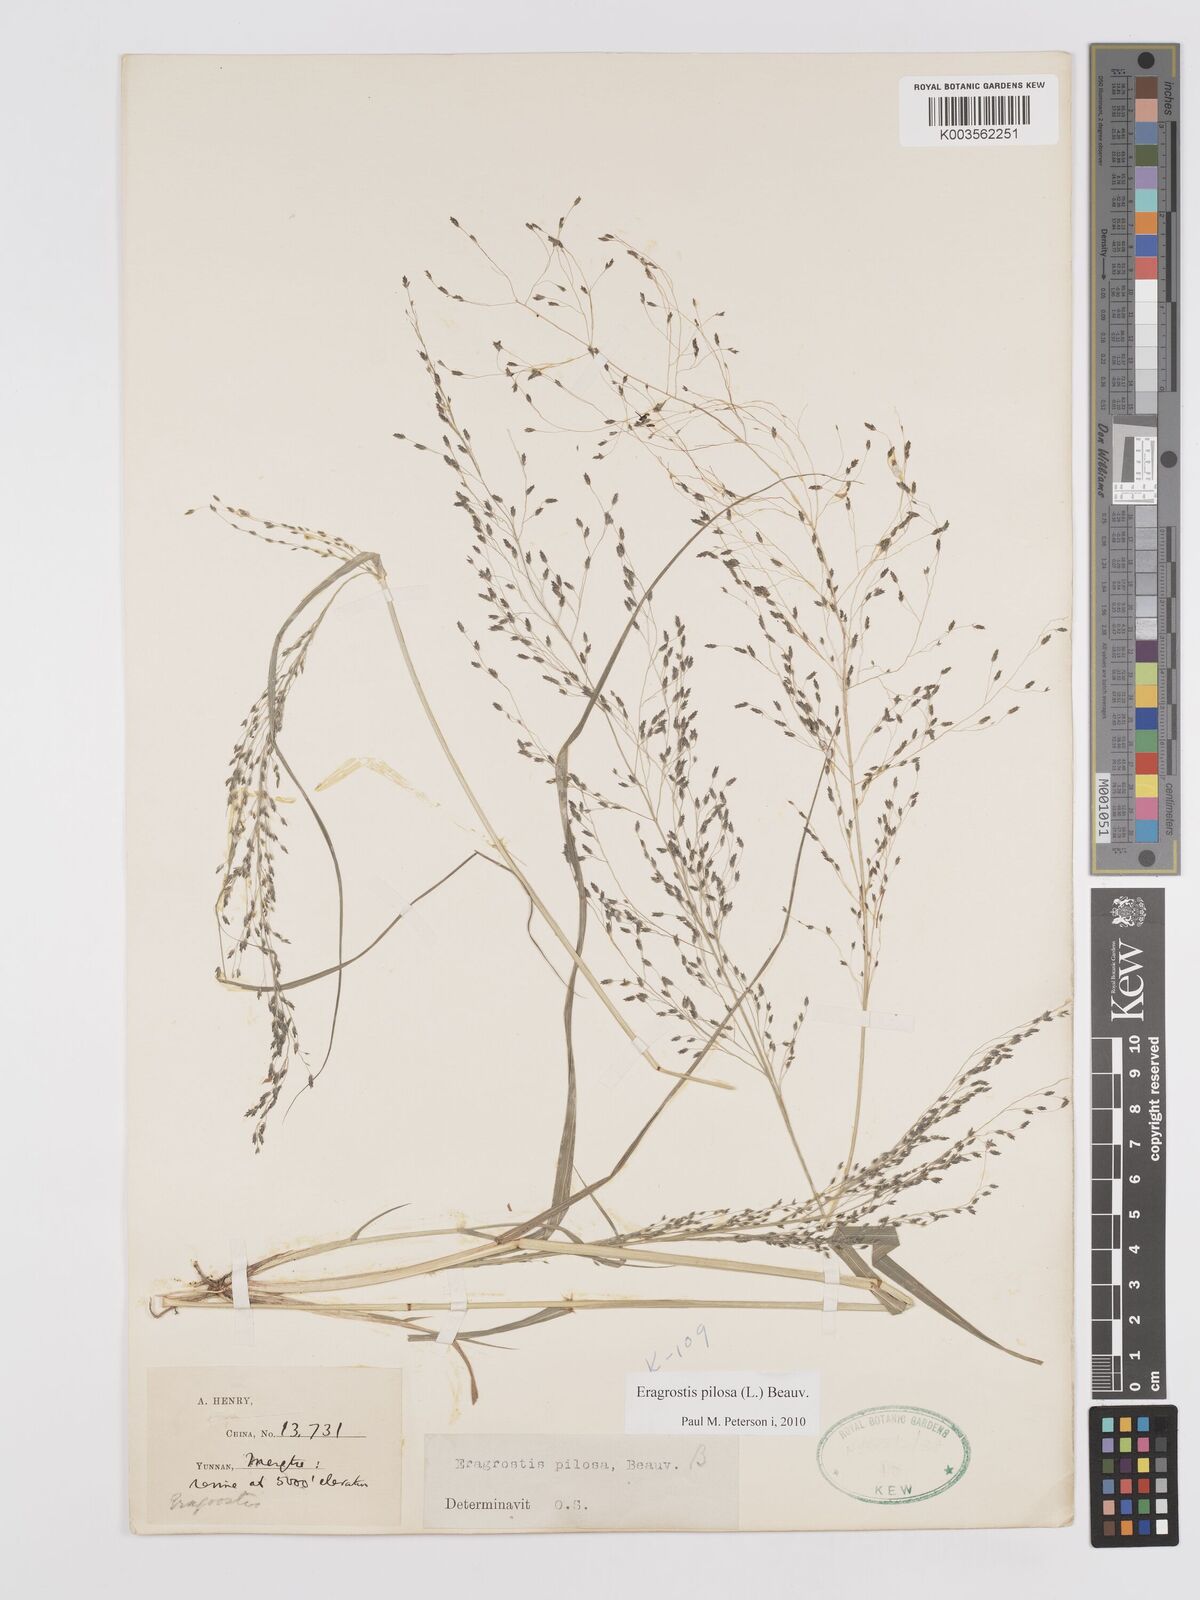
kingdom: Plantae
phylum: Tracheophyta
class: Liliopsida
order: Poales
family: Poaceae
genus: Eragrostis
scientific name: Eragrostis pilosa
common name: Indian lovegrass
